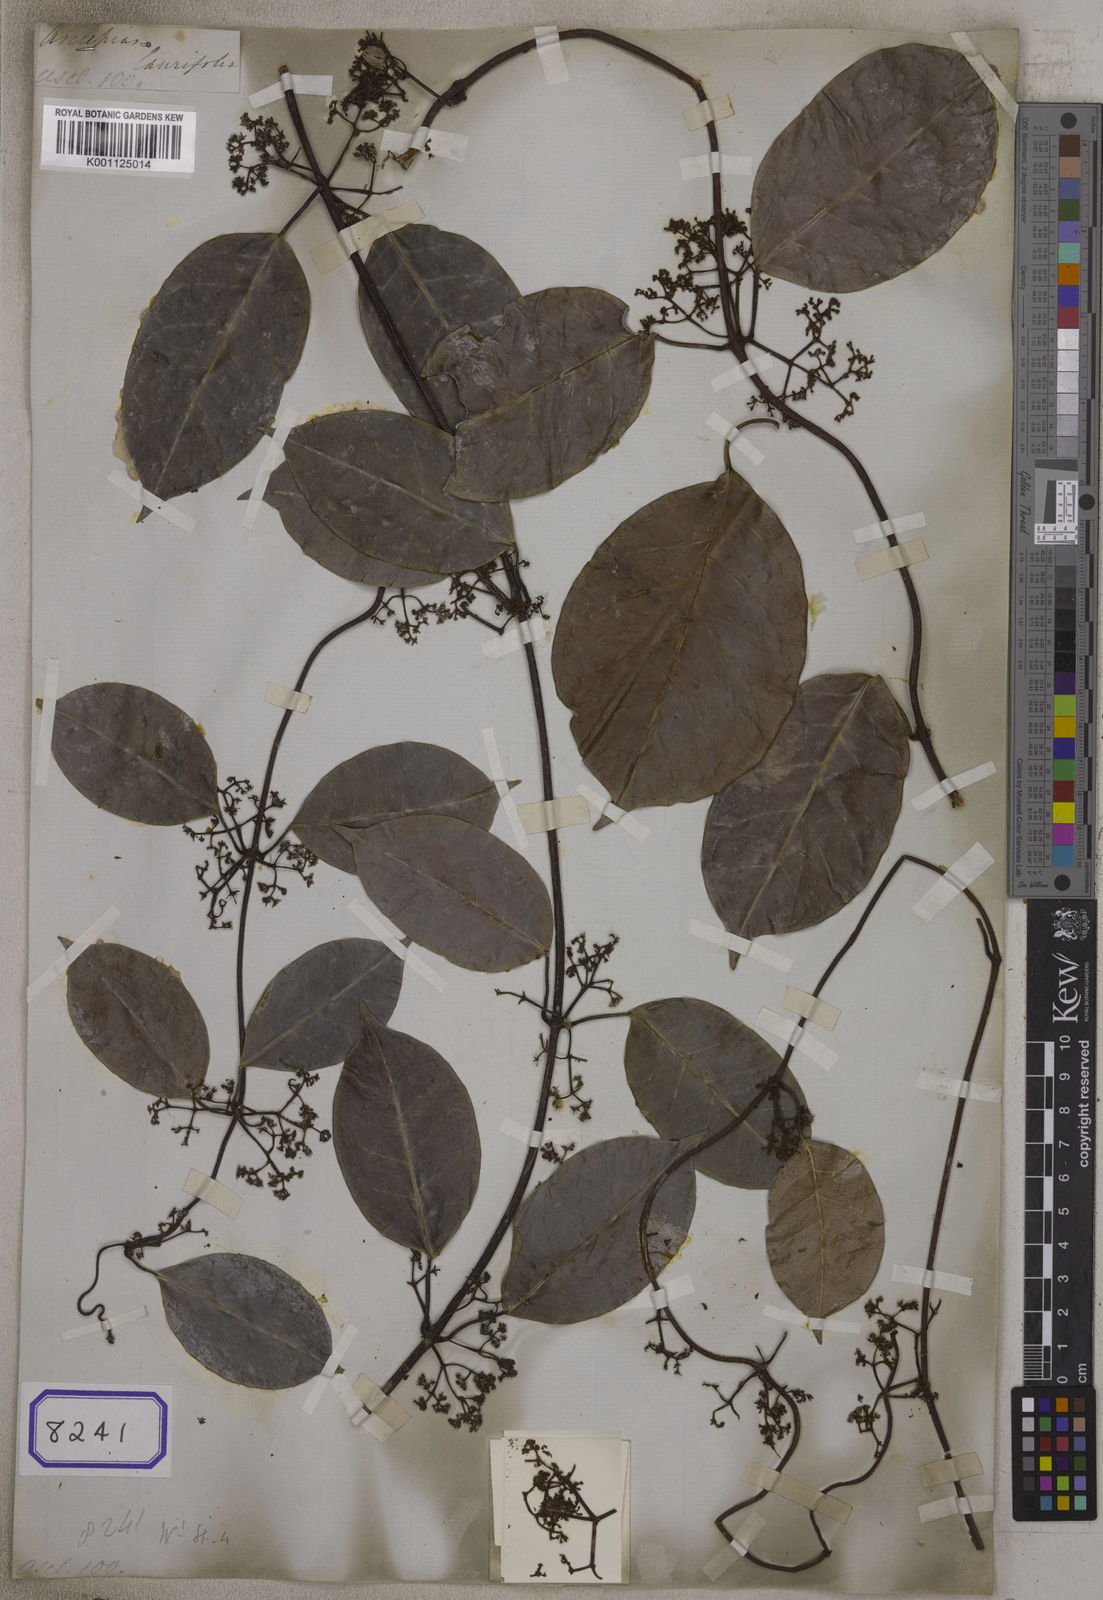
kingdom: Plantae
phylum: Tracheophyta
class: Magnoliopsida
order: Gentianales
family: Apocynaceae
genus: Genianthus
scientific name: Genianthus micranthus
